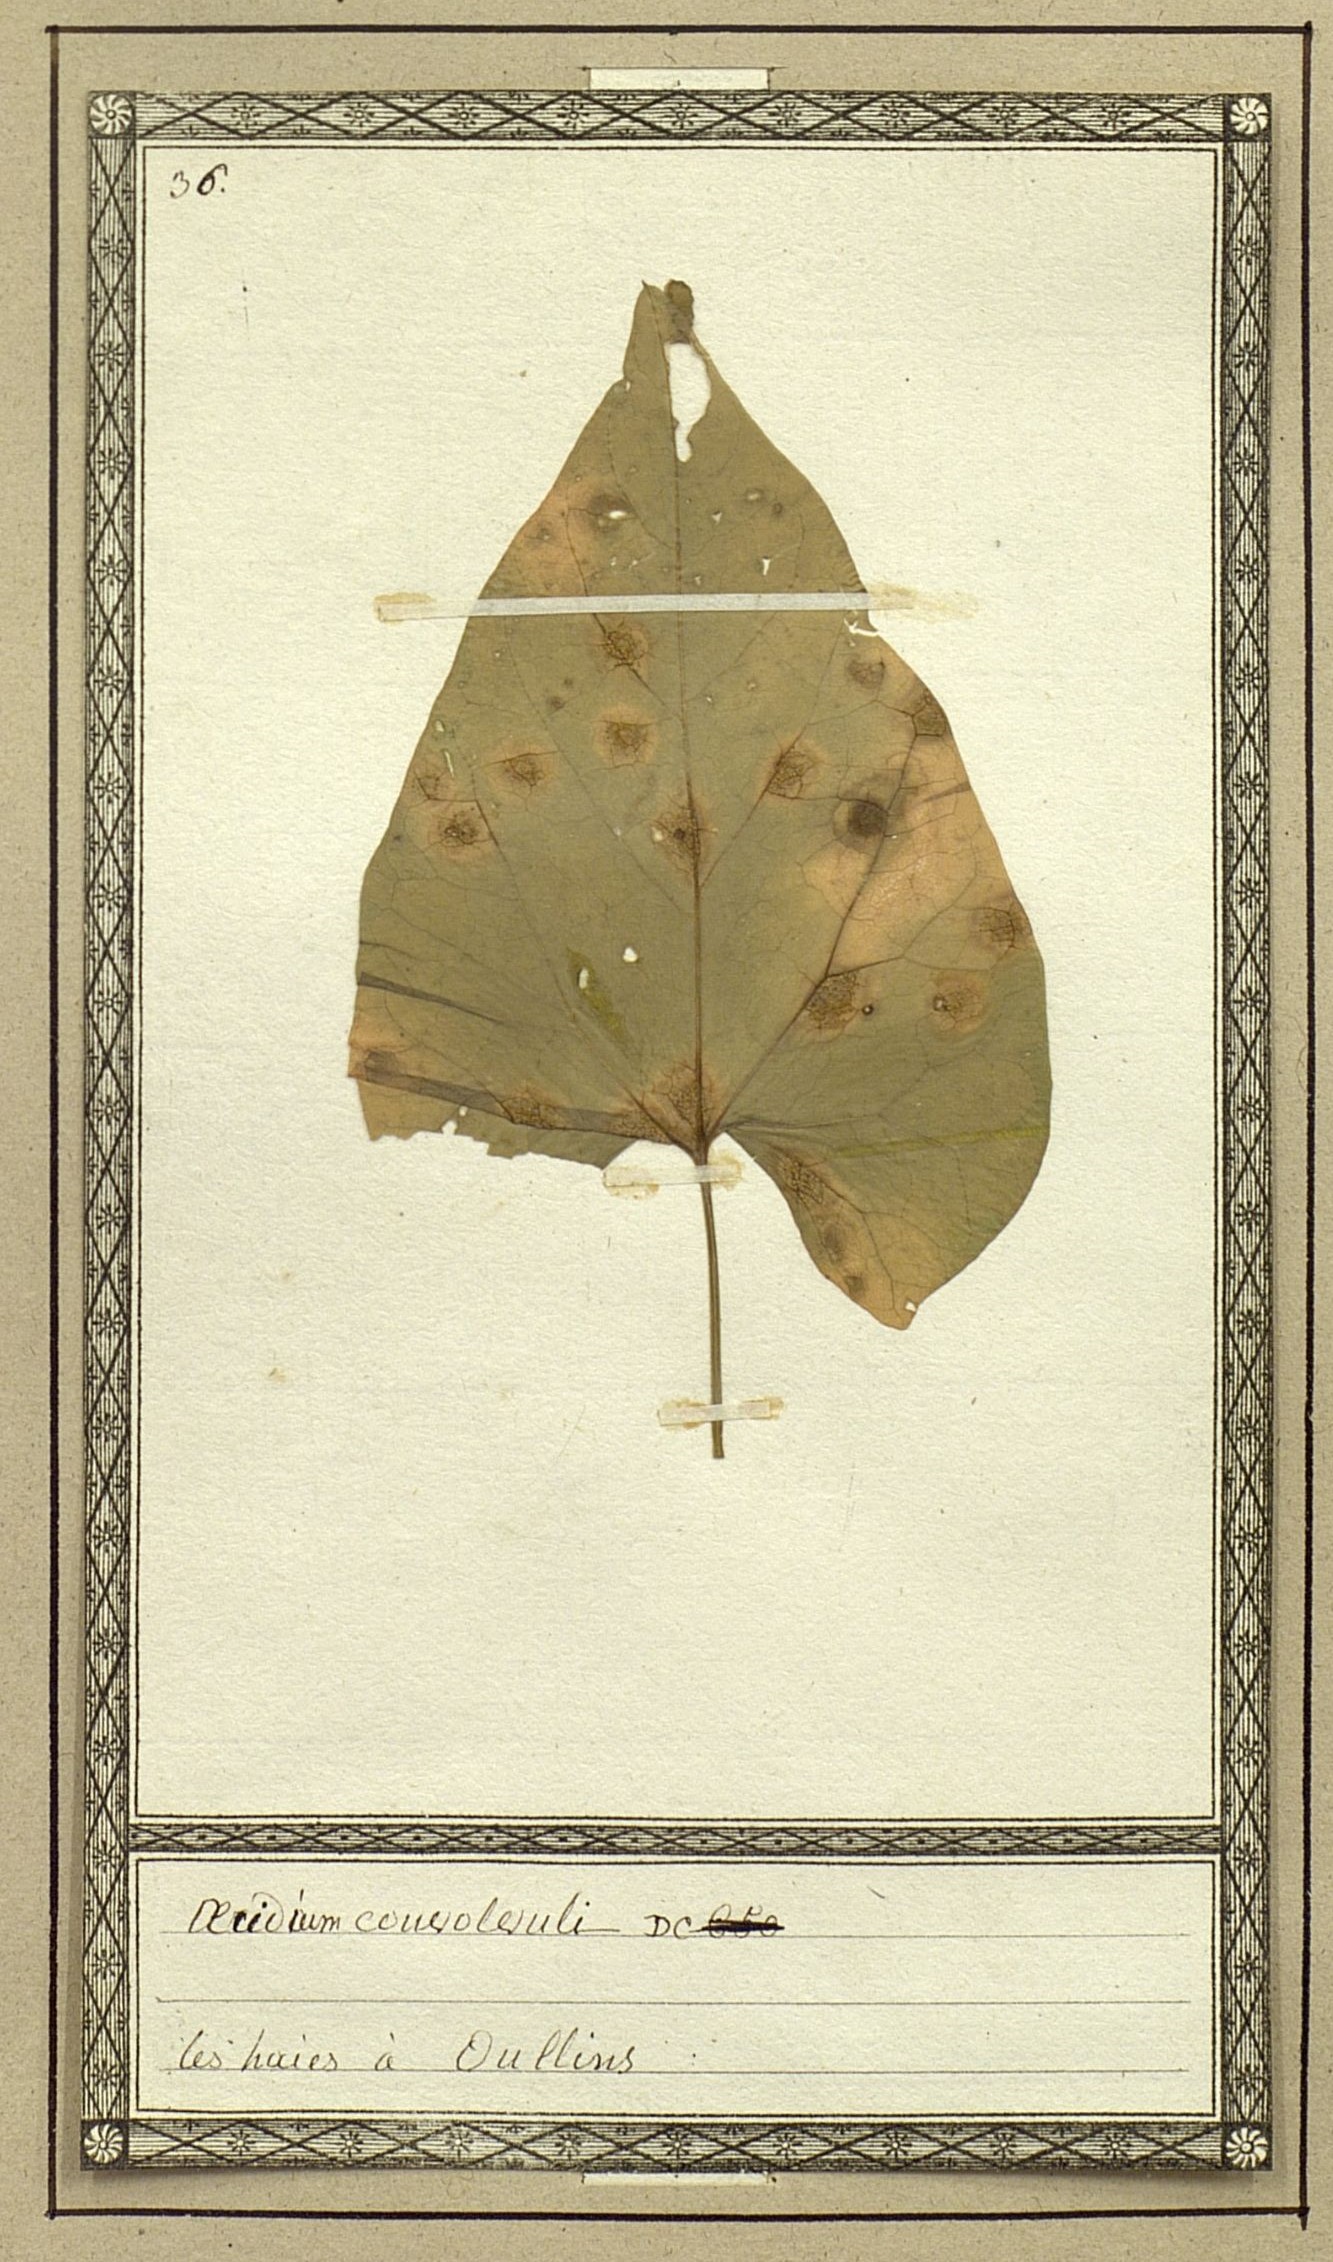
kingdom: Fungi
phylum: Basidiomycota
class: Pucciniomycetes
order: Pucciniales
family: Pucciniaceae
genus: Puccinia
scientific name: Puccinia convolvuli
